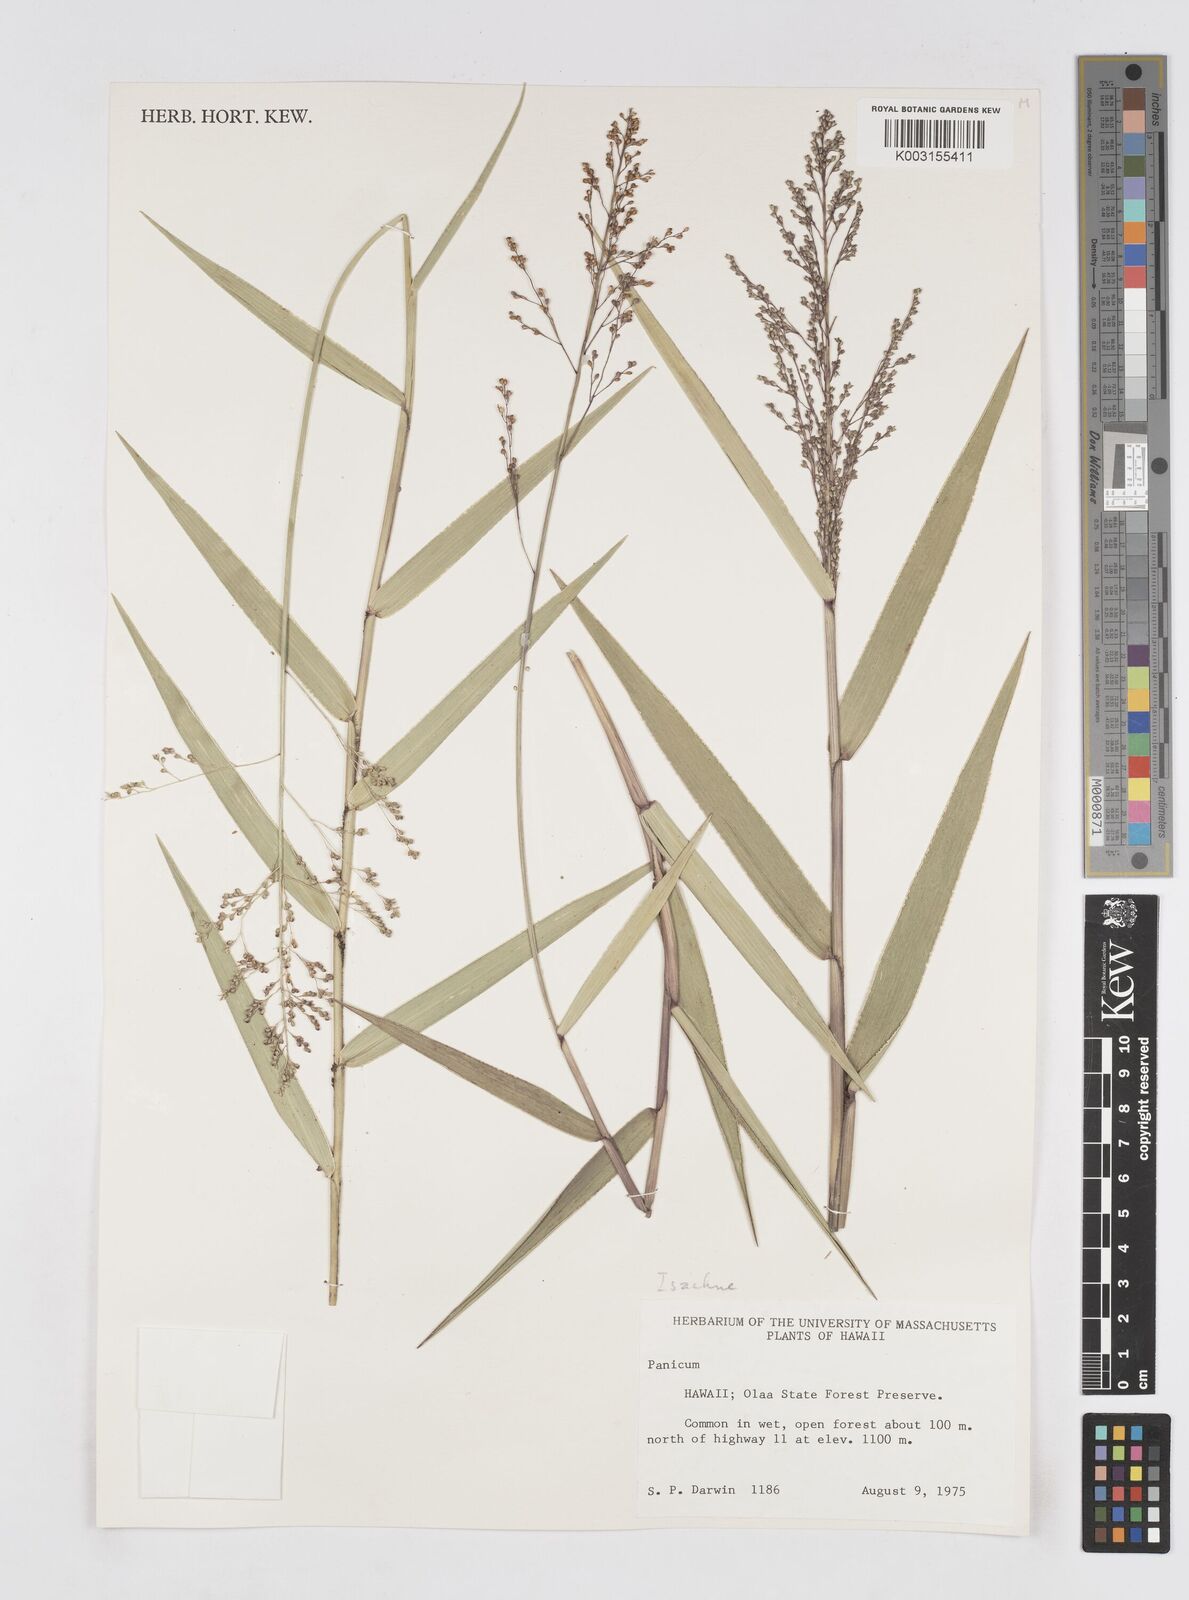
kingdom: Plantae
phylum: Tracheophyta
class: Liliopsida
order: Poales
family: Poaceae
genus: Isachne
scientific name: Isachne distichophylla
